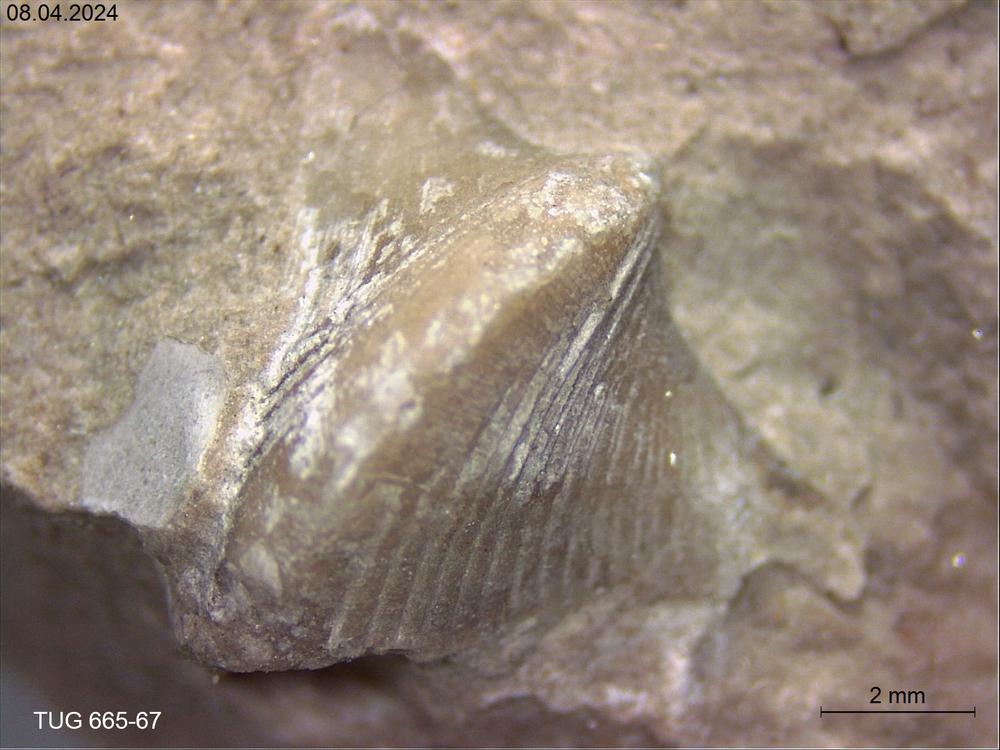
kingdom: Animalia
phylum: Mollusca
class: Rostroconchia
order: Conocardiida
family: Hippocardiidae
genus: Hippocardia
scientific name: Hippocardia
